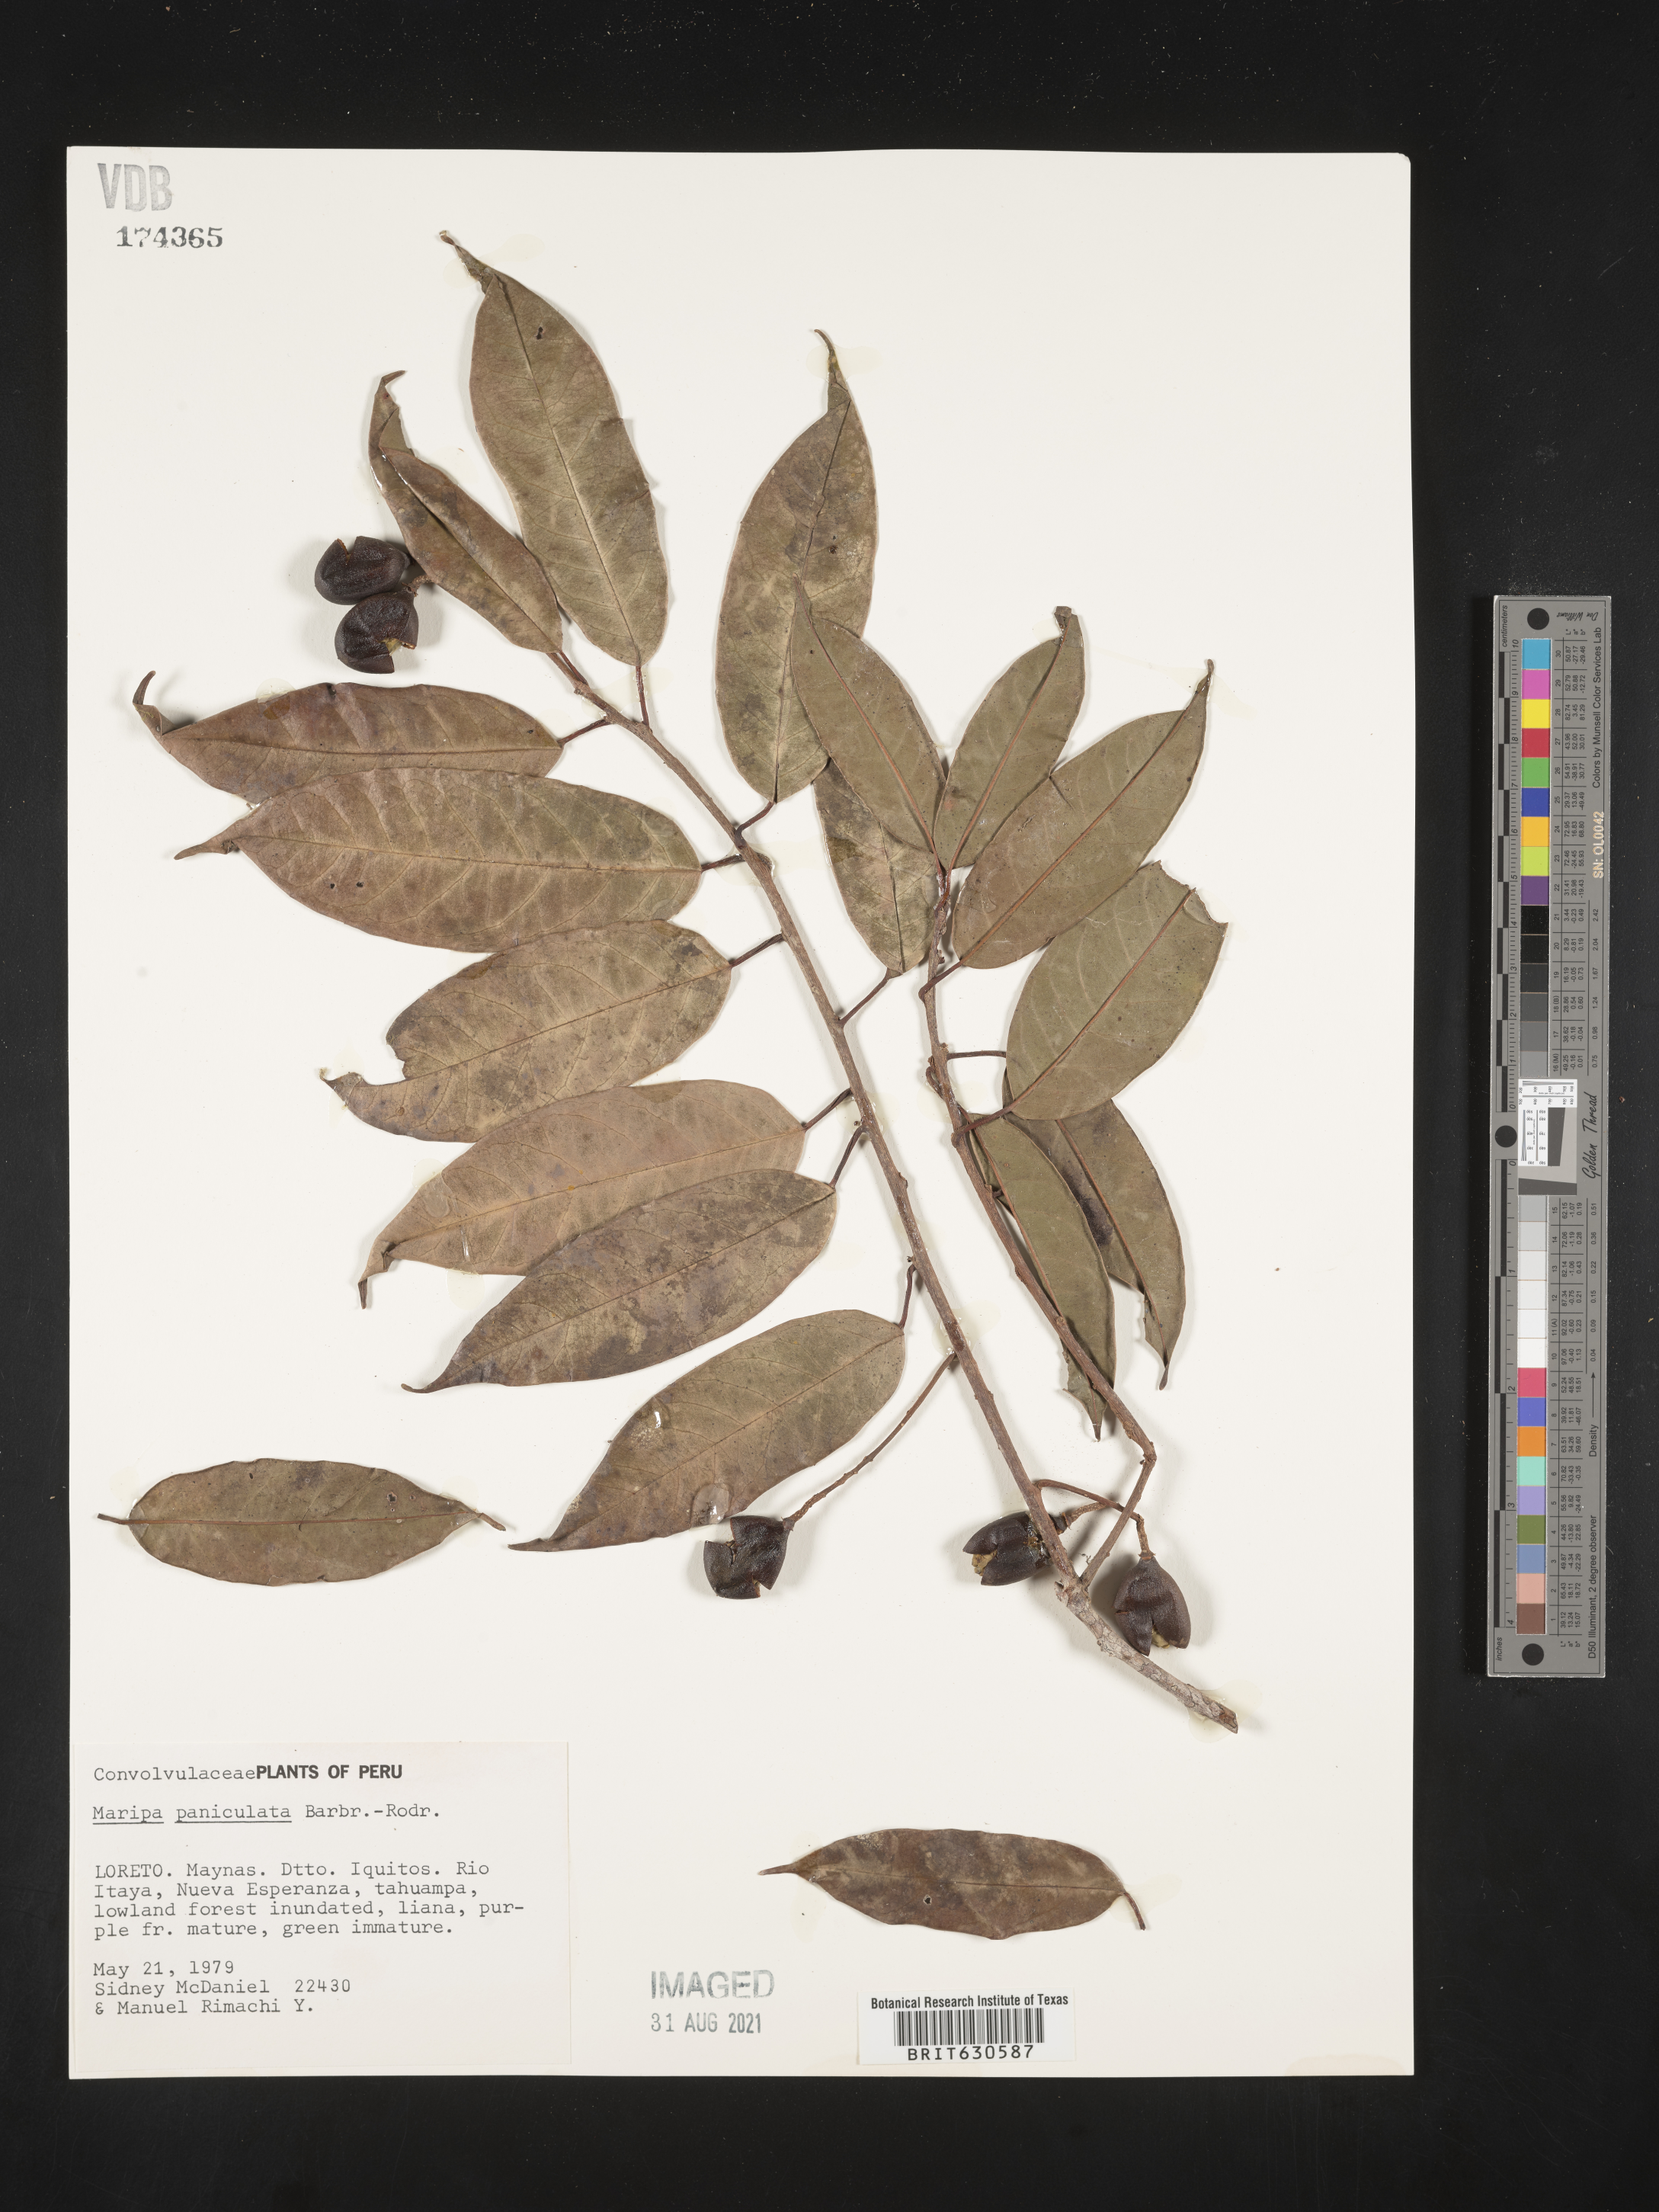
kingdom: Plantae
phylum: Tracheophyta
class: Magnoliopsida
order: Solanales
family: Convolvulaceae
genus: Maripa
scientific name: Maripa paniculata
